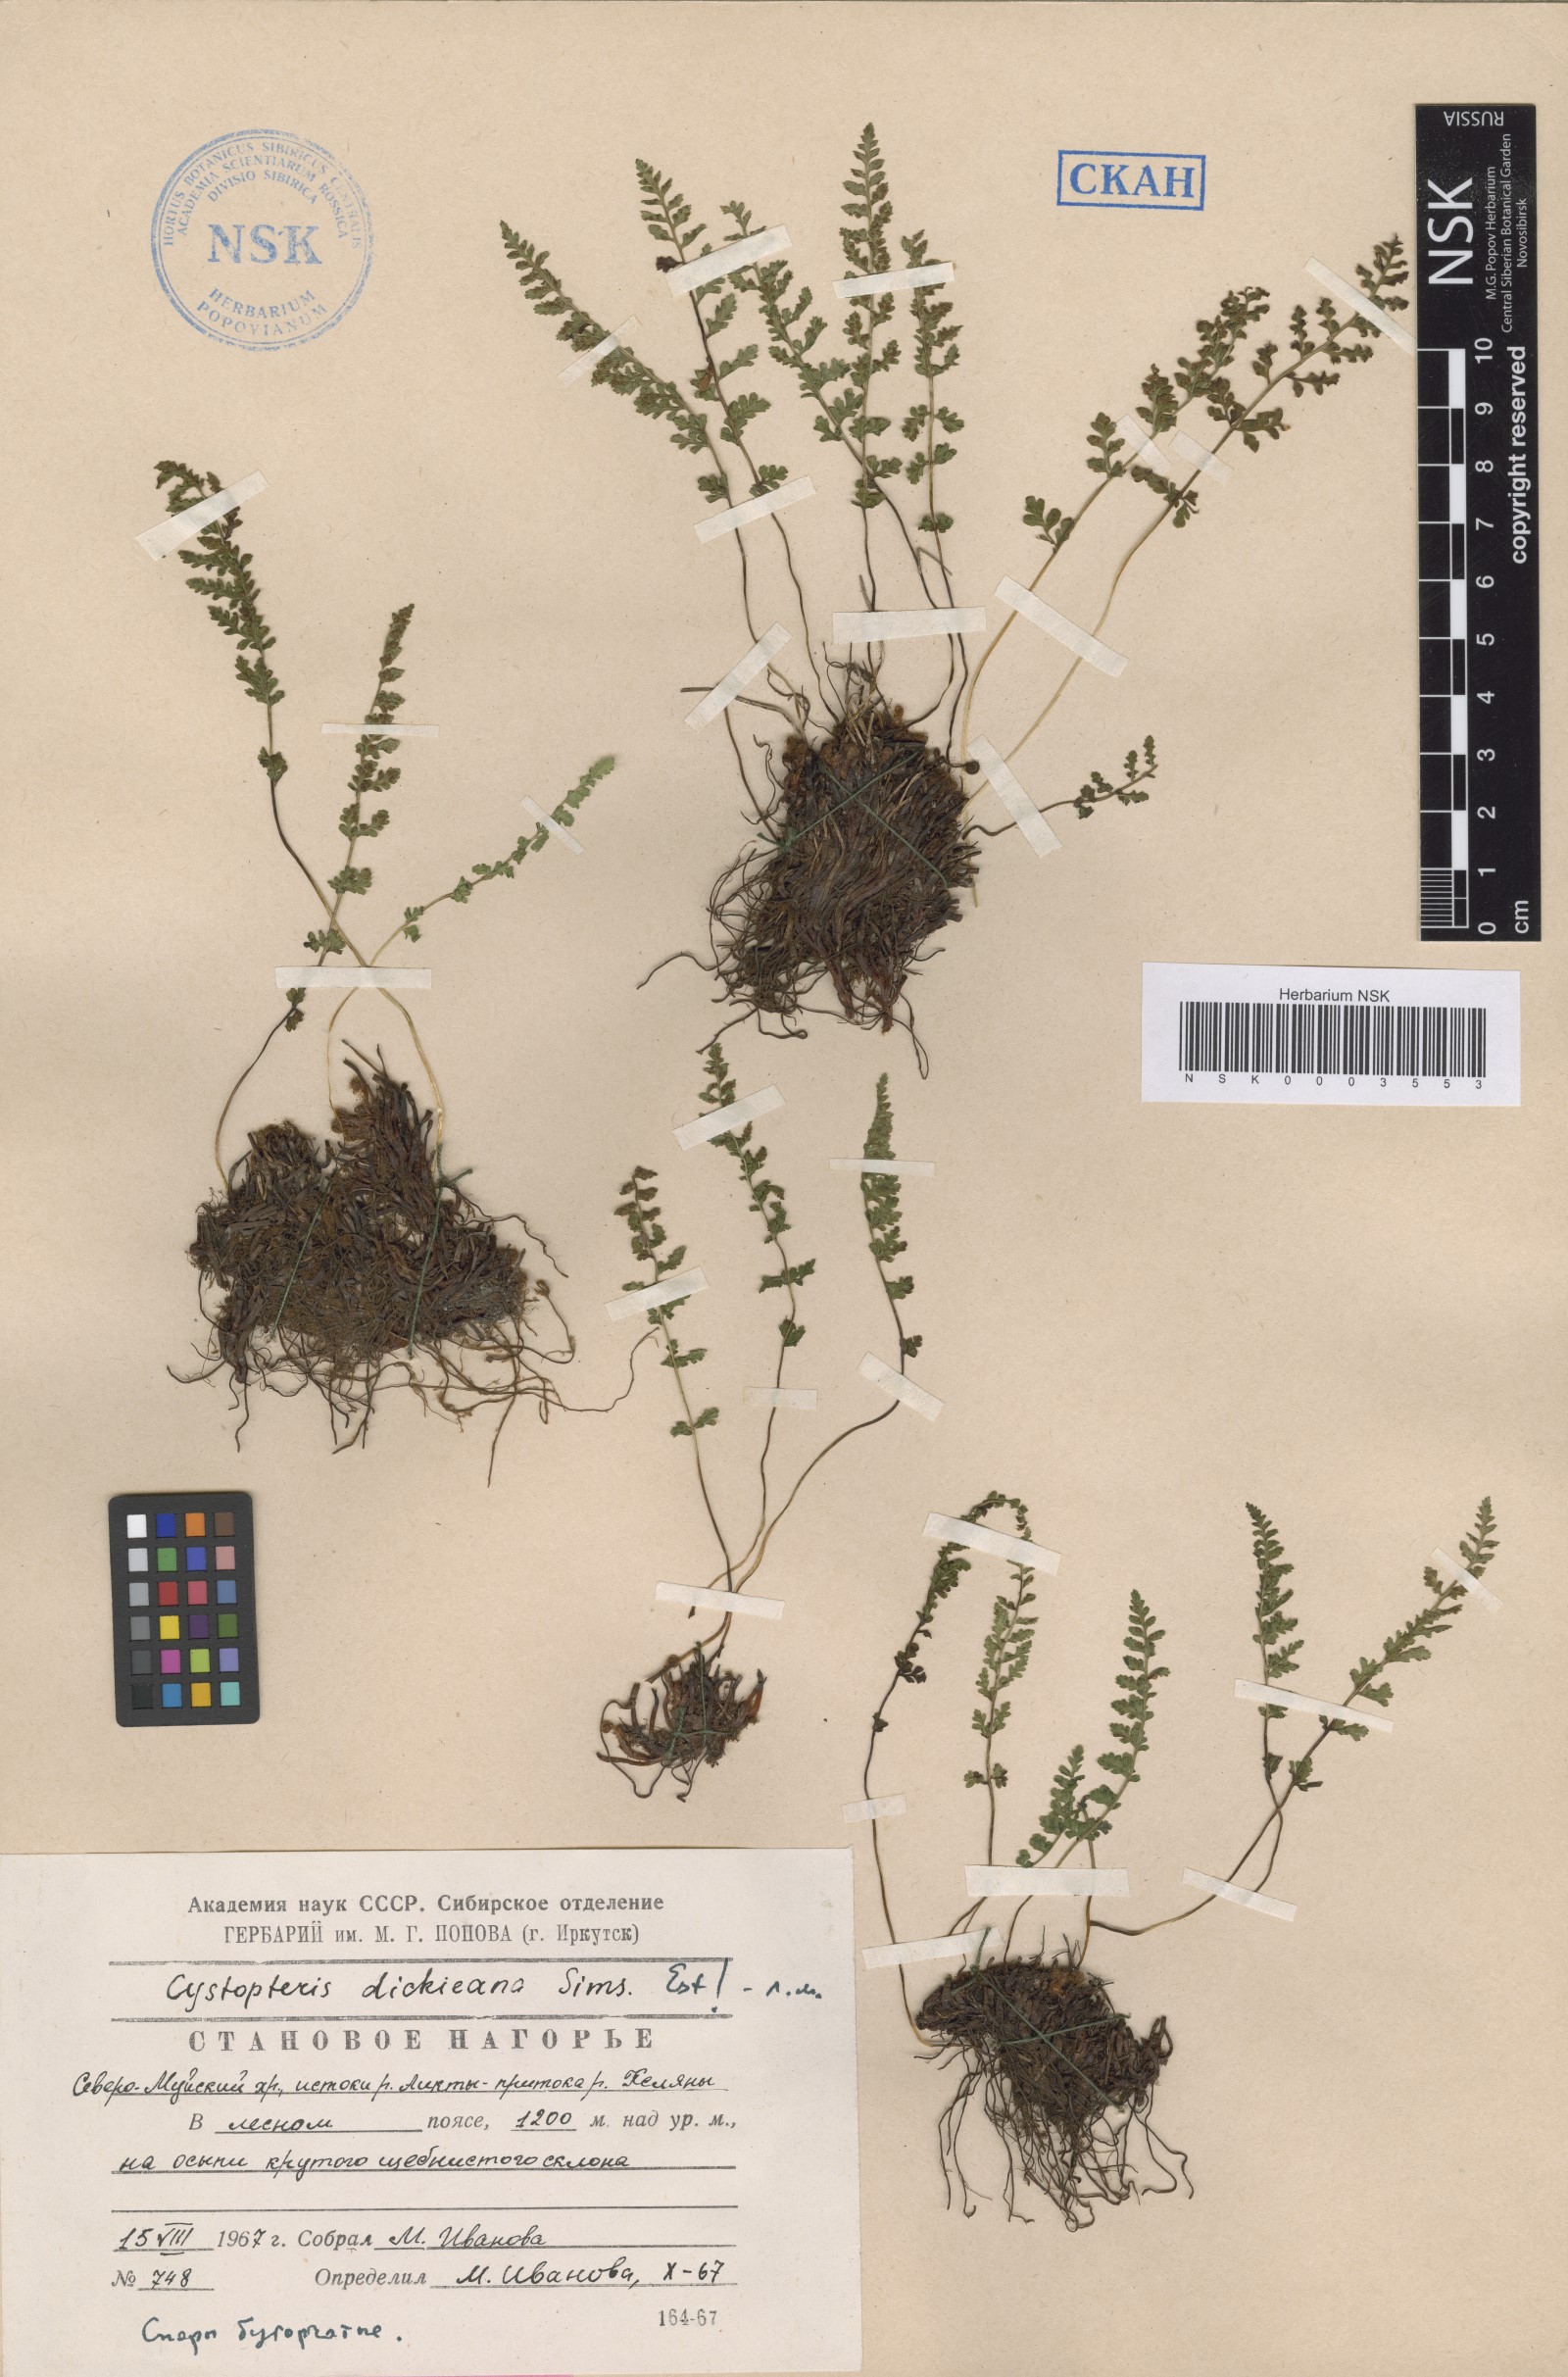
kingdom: Plantae
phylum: Tracheophyta
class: Polypodiopsida
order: Polypodiales
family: Cystopteridaceae
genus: Cystopteris
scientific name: Cystopteris dickieana
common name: Dickie's bladder-fern
